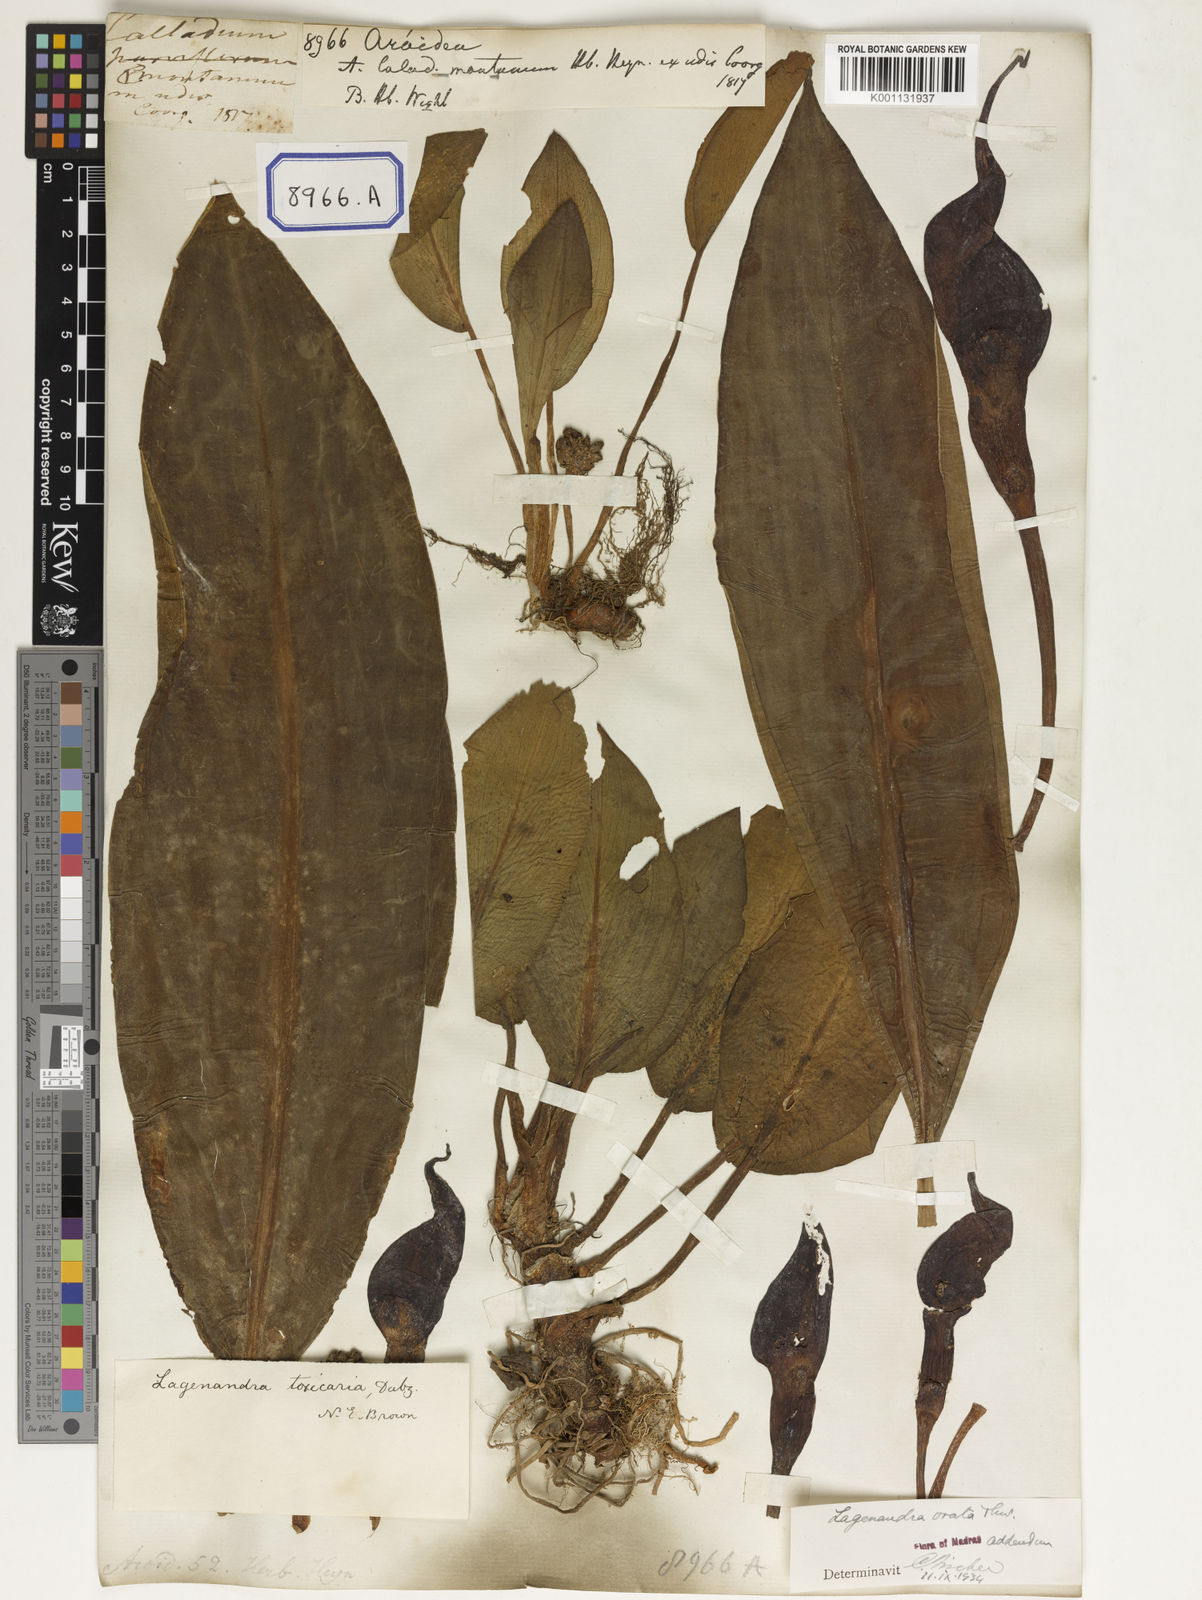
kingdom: Plantae
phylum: Tracheophyta
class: Liliopsida
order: Alismatales
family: Araceae
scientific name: Araceae
